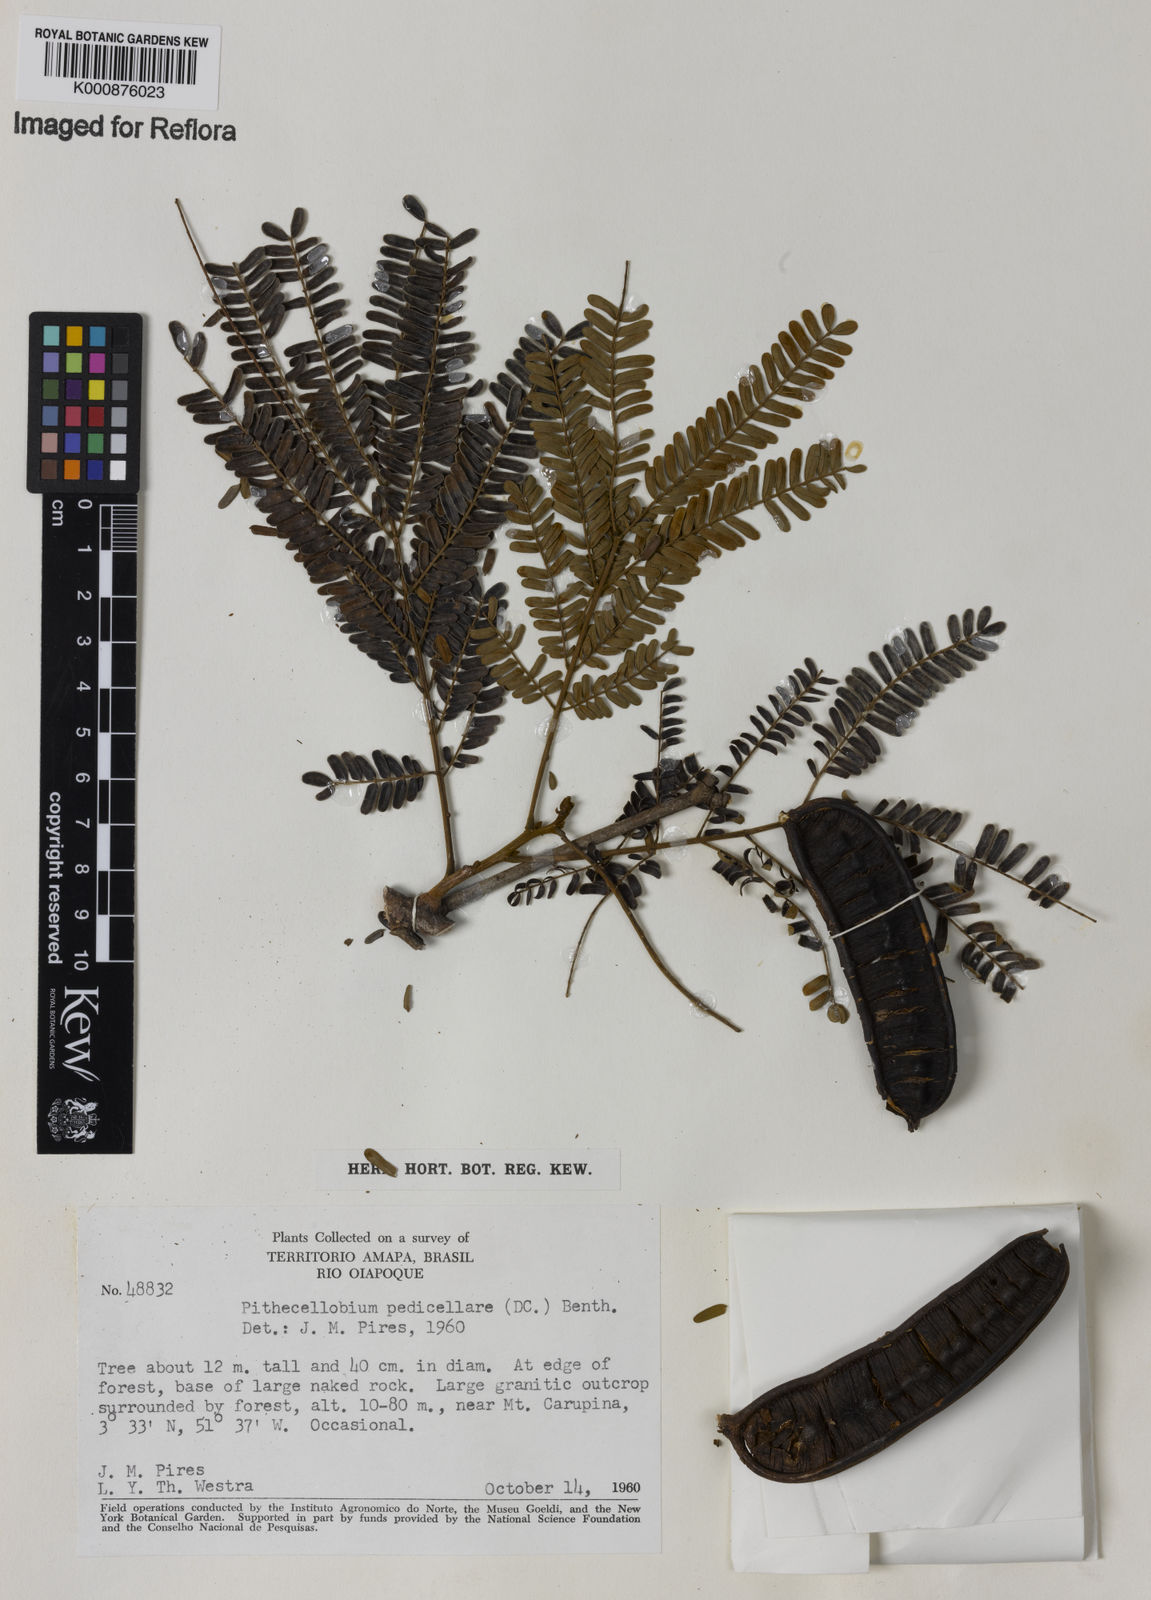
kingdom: Plantae
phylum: Tracheophyta
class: Magnoliopsida
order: Fabales
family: Fabaceae
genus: Balizia
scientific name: Balizia pedicellaris
